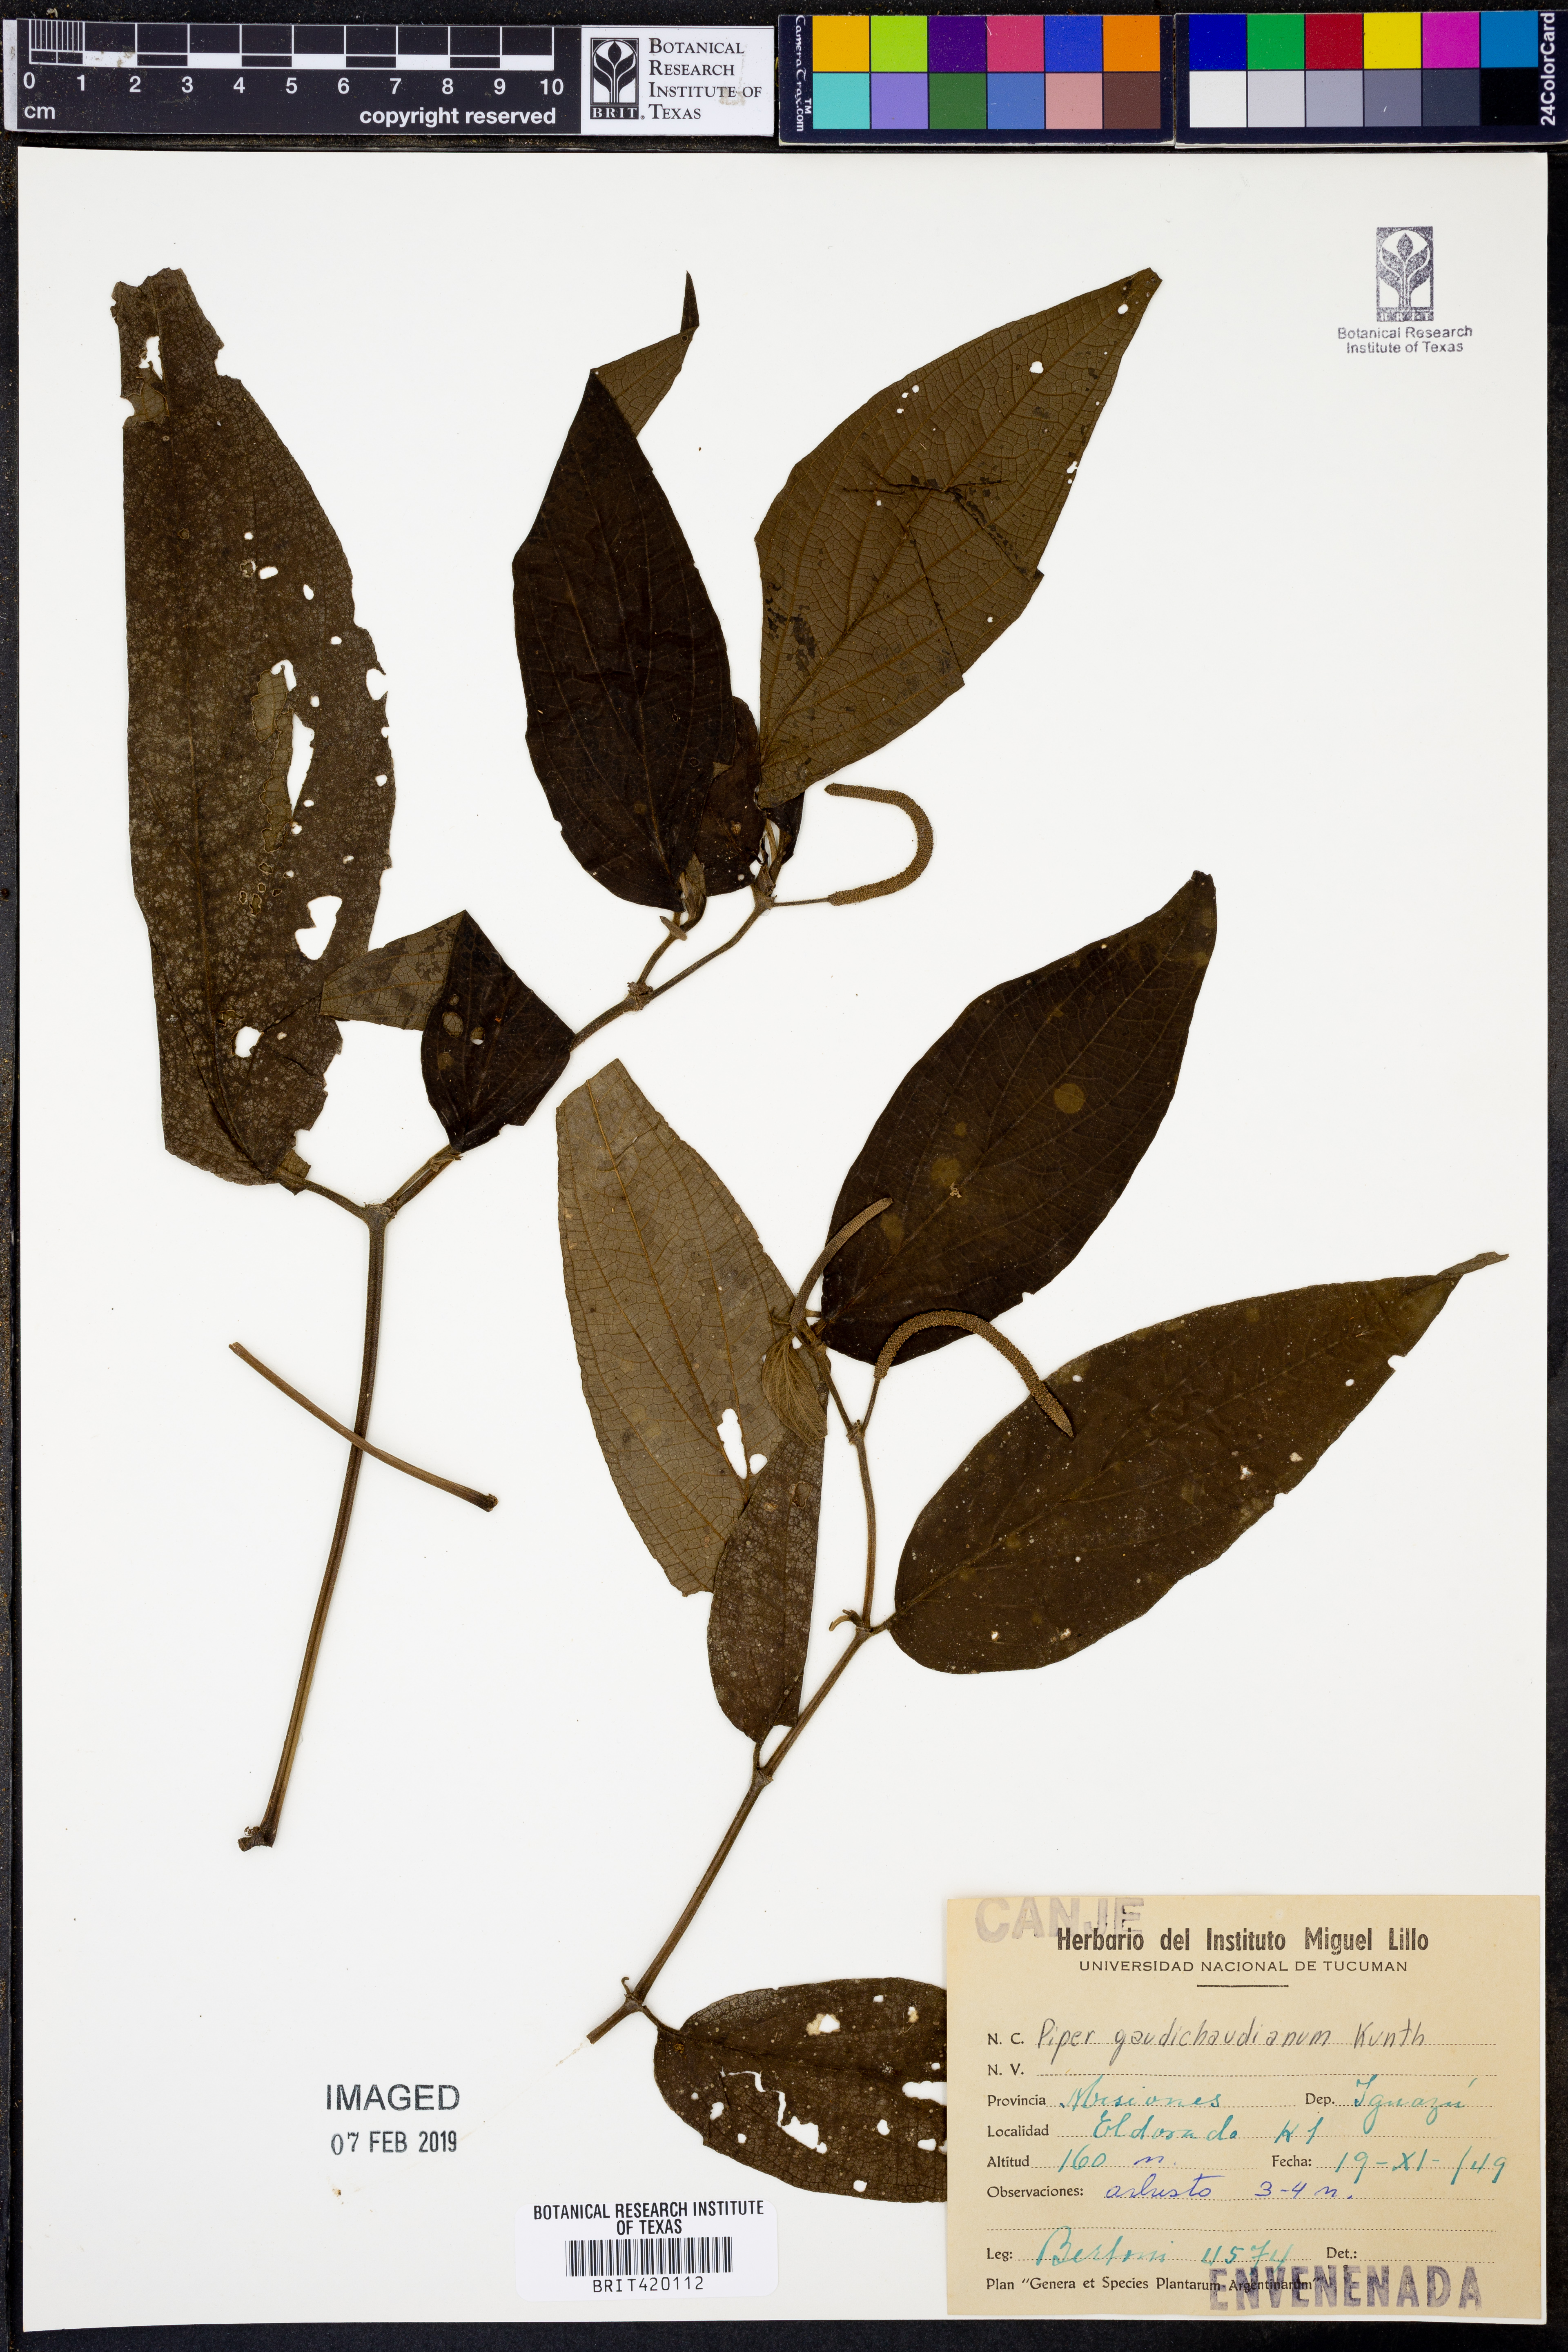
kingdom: Plantae
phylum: Tracheophyta
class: Magnoliopsida
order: Piperales
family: Piperaceae
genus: Piper
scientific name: Piper gaudichaudianum
